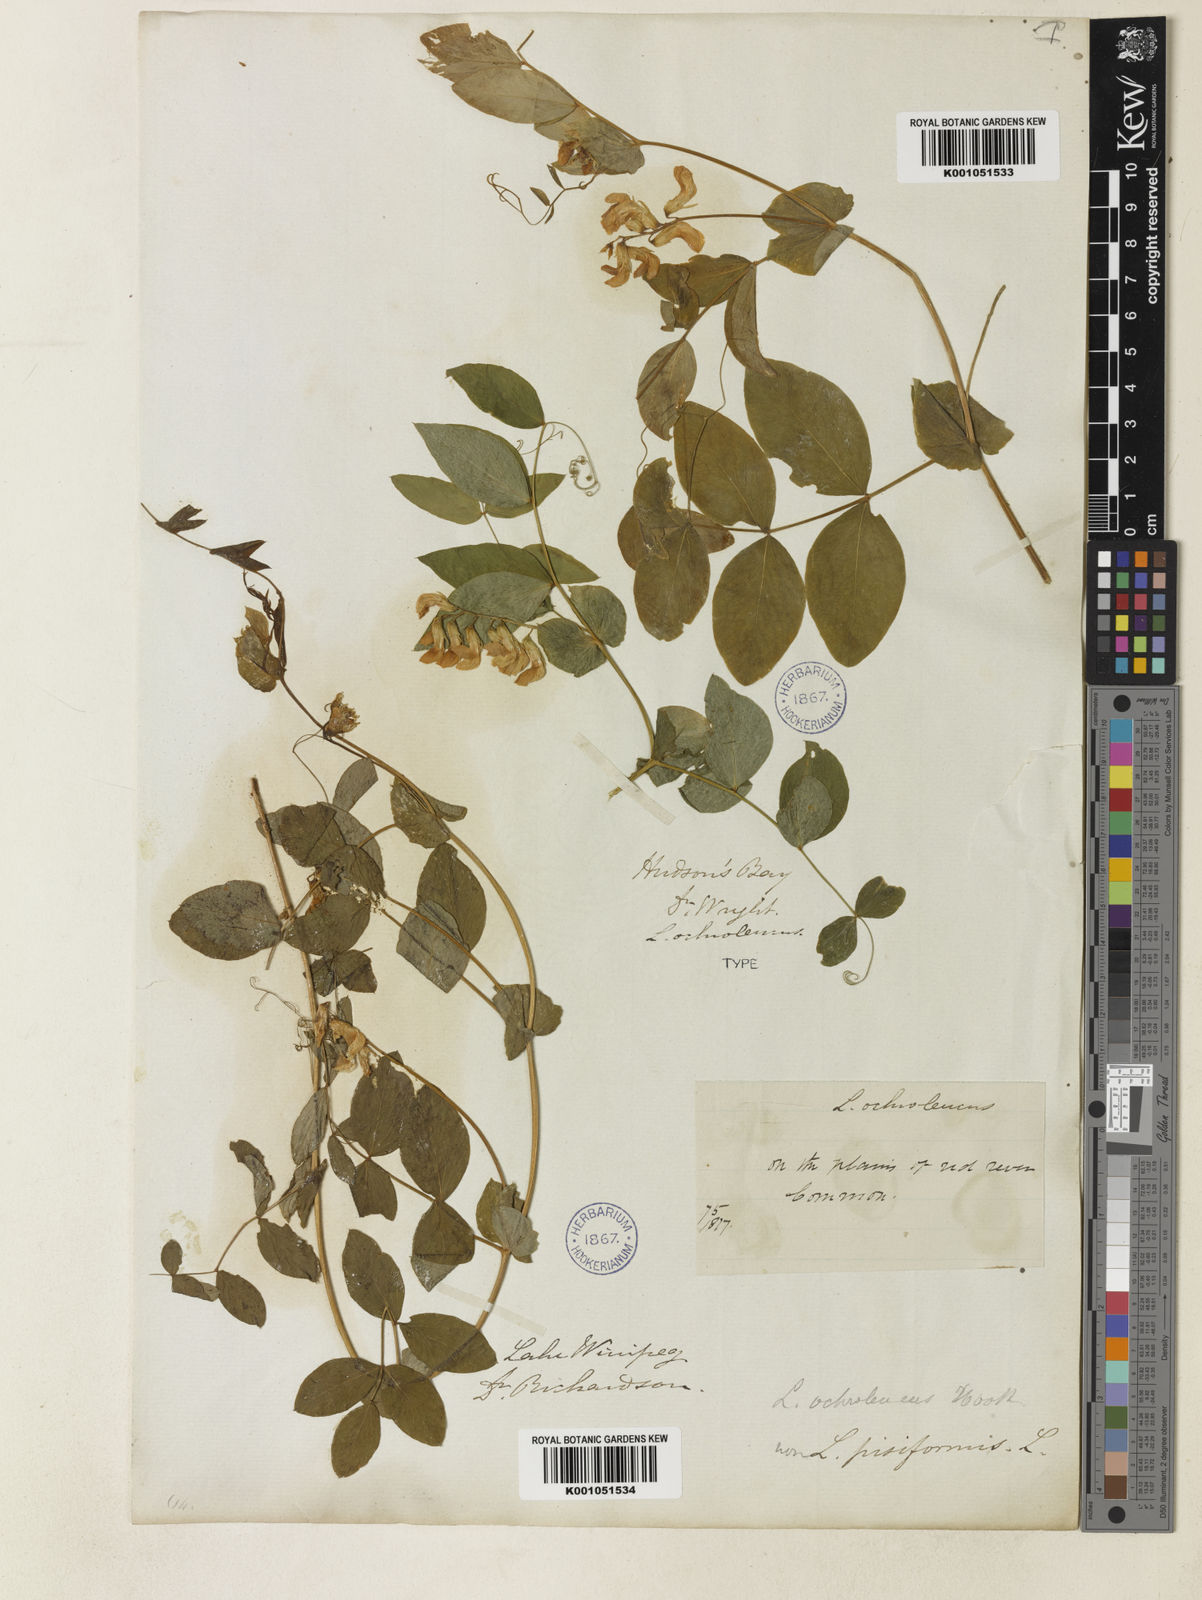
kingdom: Plantae
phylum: Tracheophyta
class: Magnoliopsida
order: Fabales
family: Fabaceae
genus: Lathyrus
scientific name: Lathyrus ochroleucus
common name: Pale vetchling
